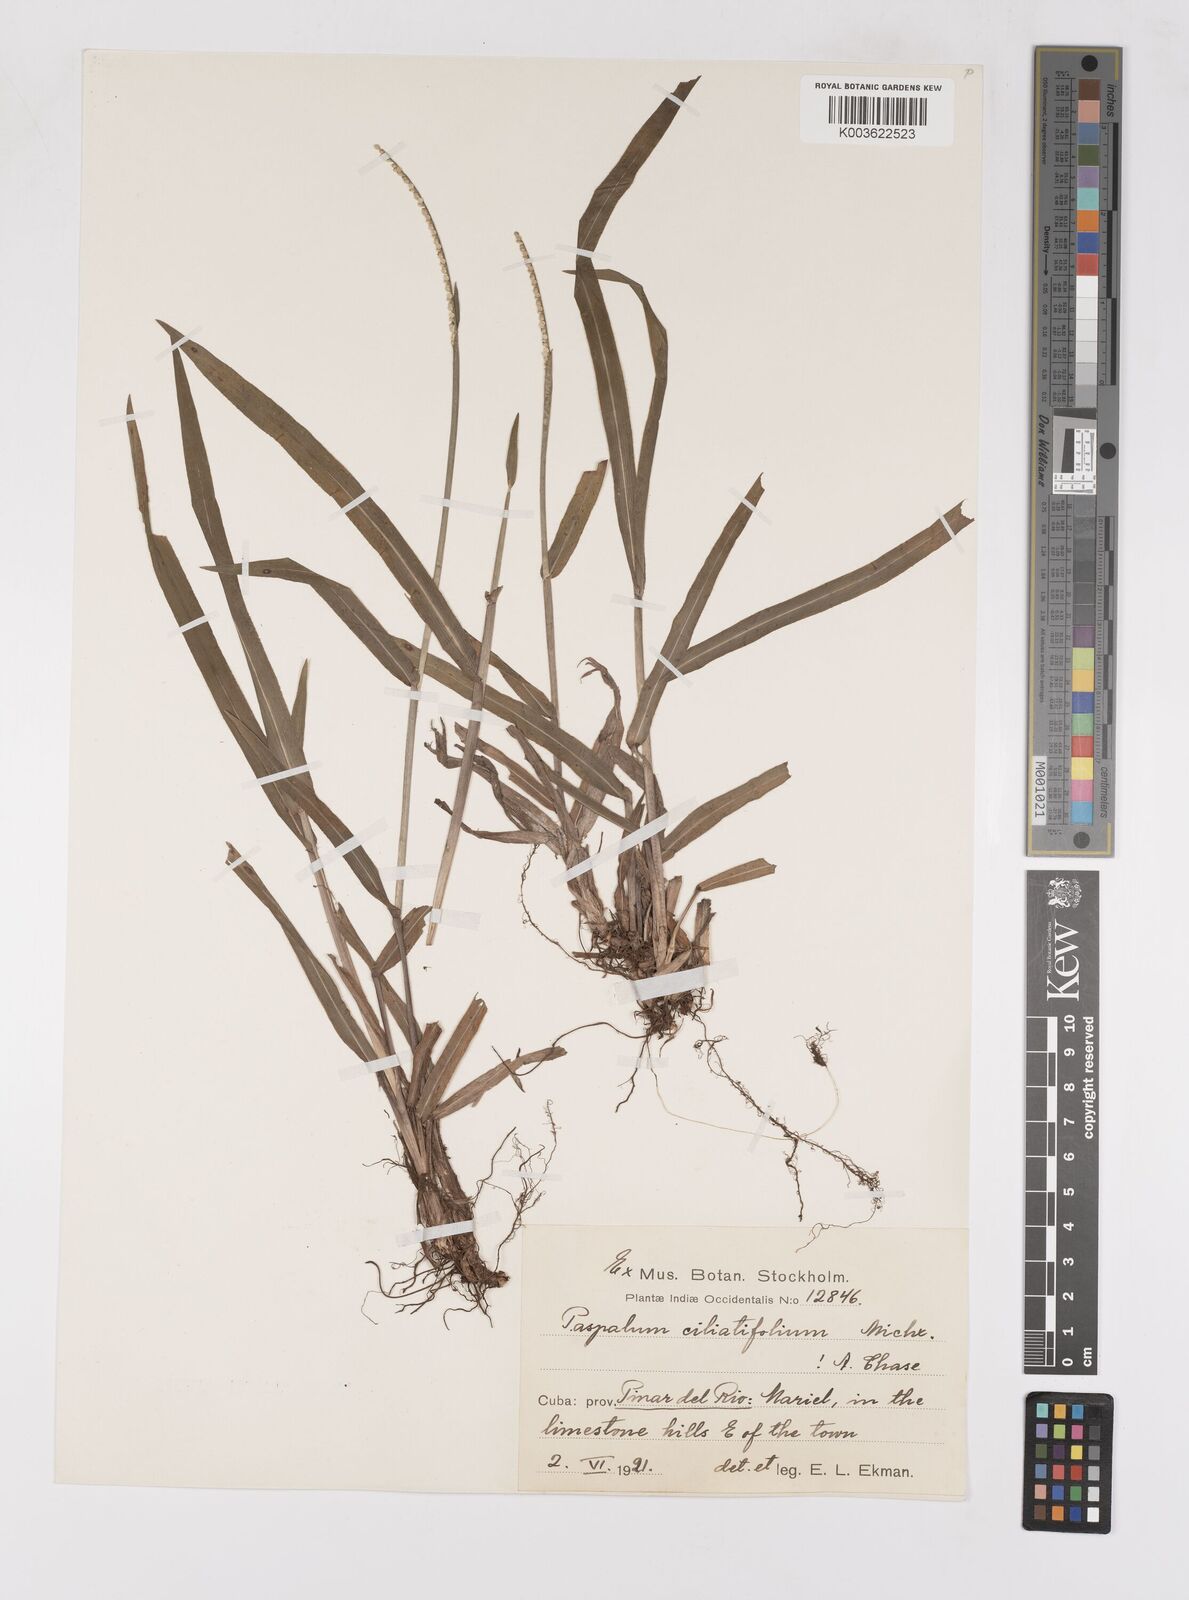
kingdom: Plantae
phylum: Tracheophyta
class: Liliopsida
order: Poales
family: Poaceae
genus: Paspalum
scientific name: Paspalum setaceum
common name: Slender paspalum
